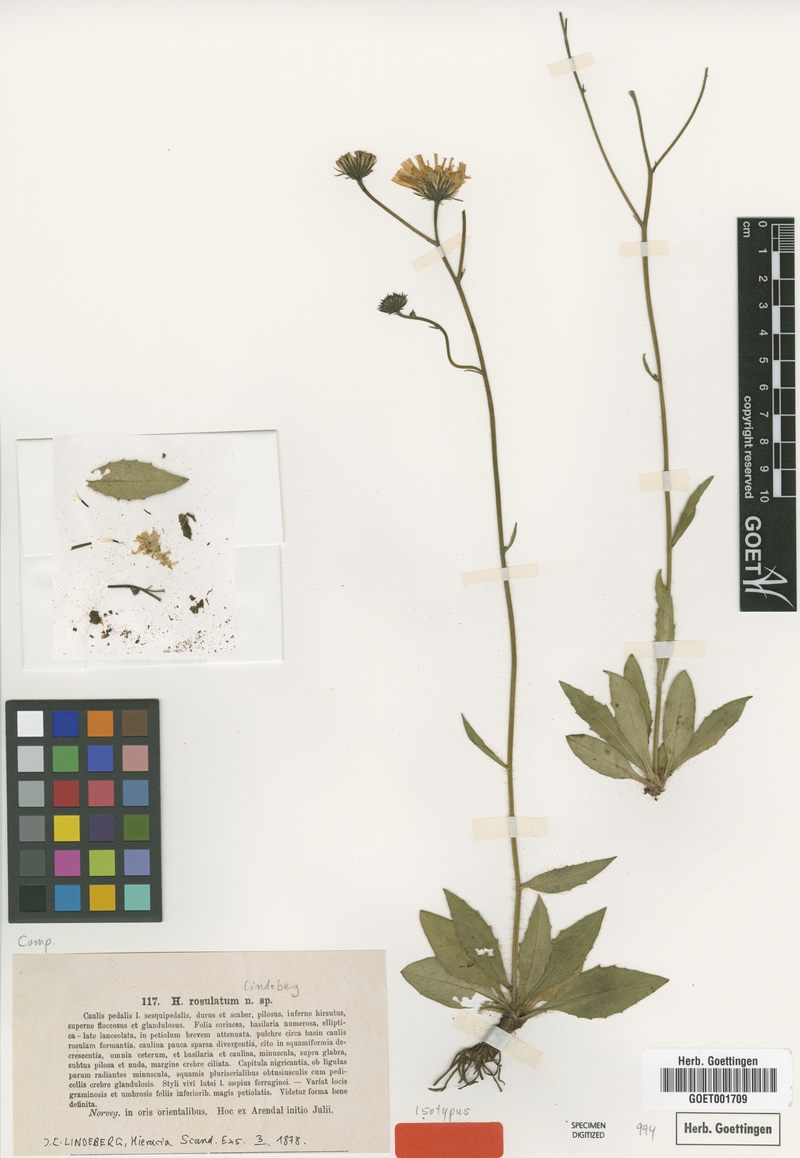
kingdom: Plantae
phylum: Tracheophyta
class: Magnoliopsida
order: Asterales
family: Asteraceae
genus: Hieracium
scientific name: Hieracium rosulatum
